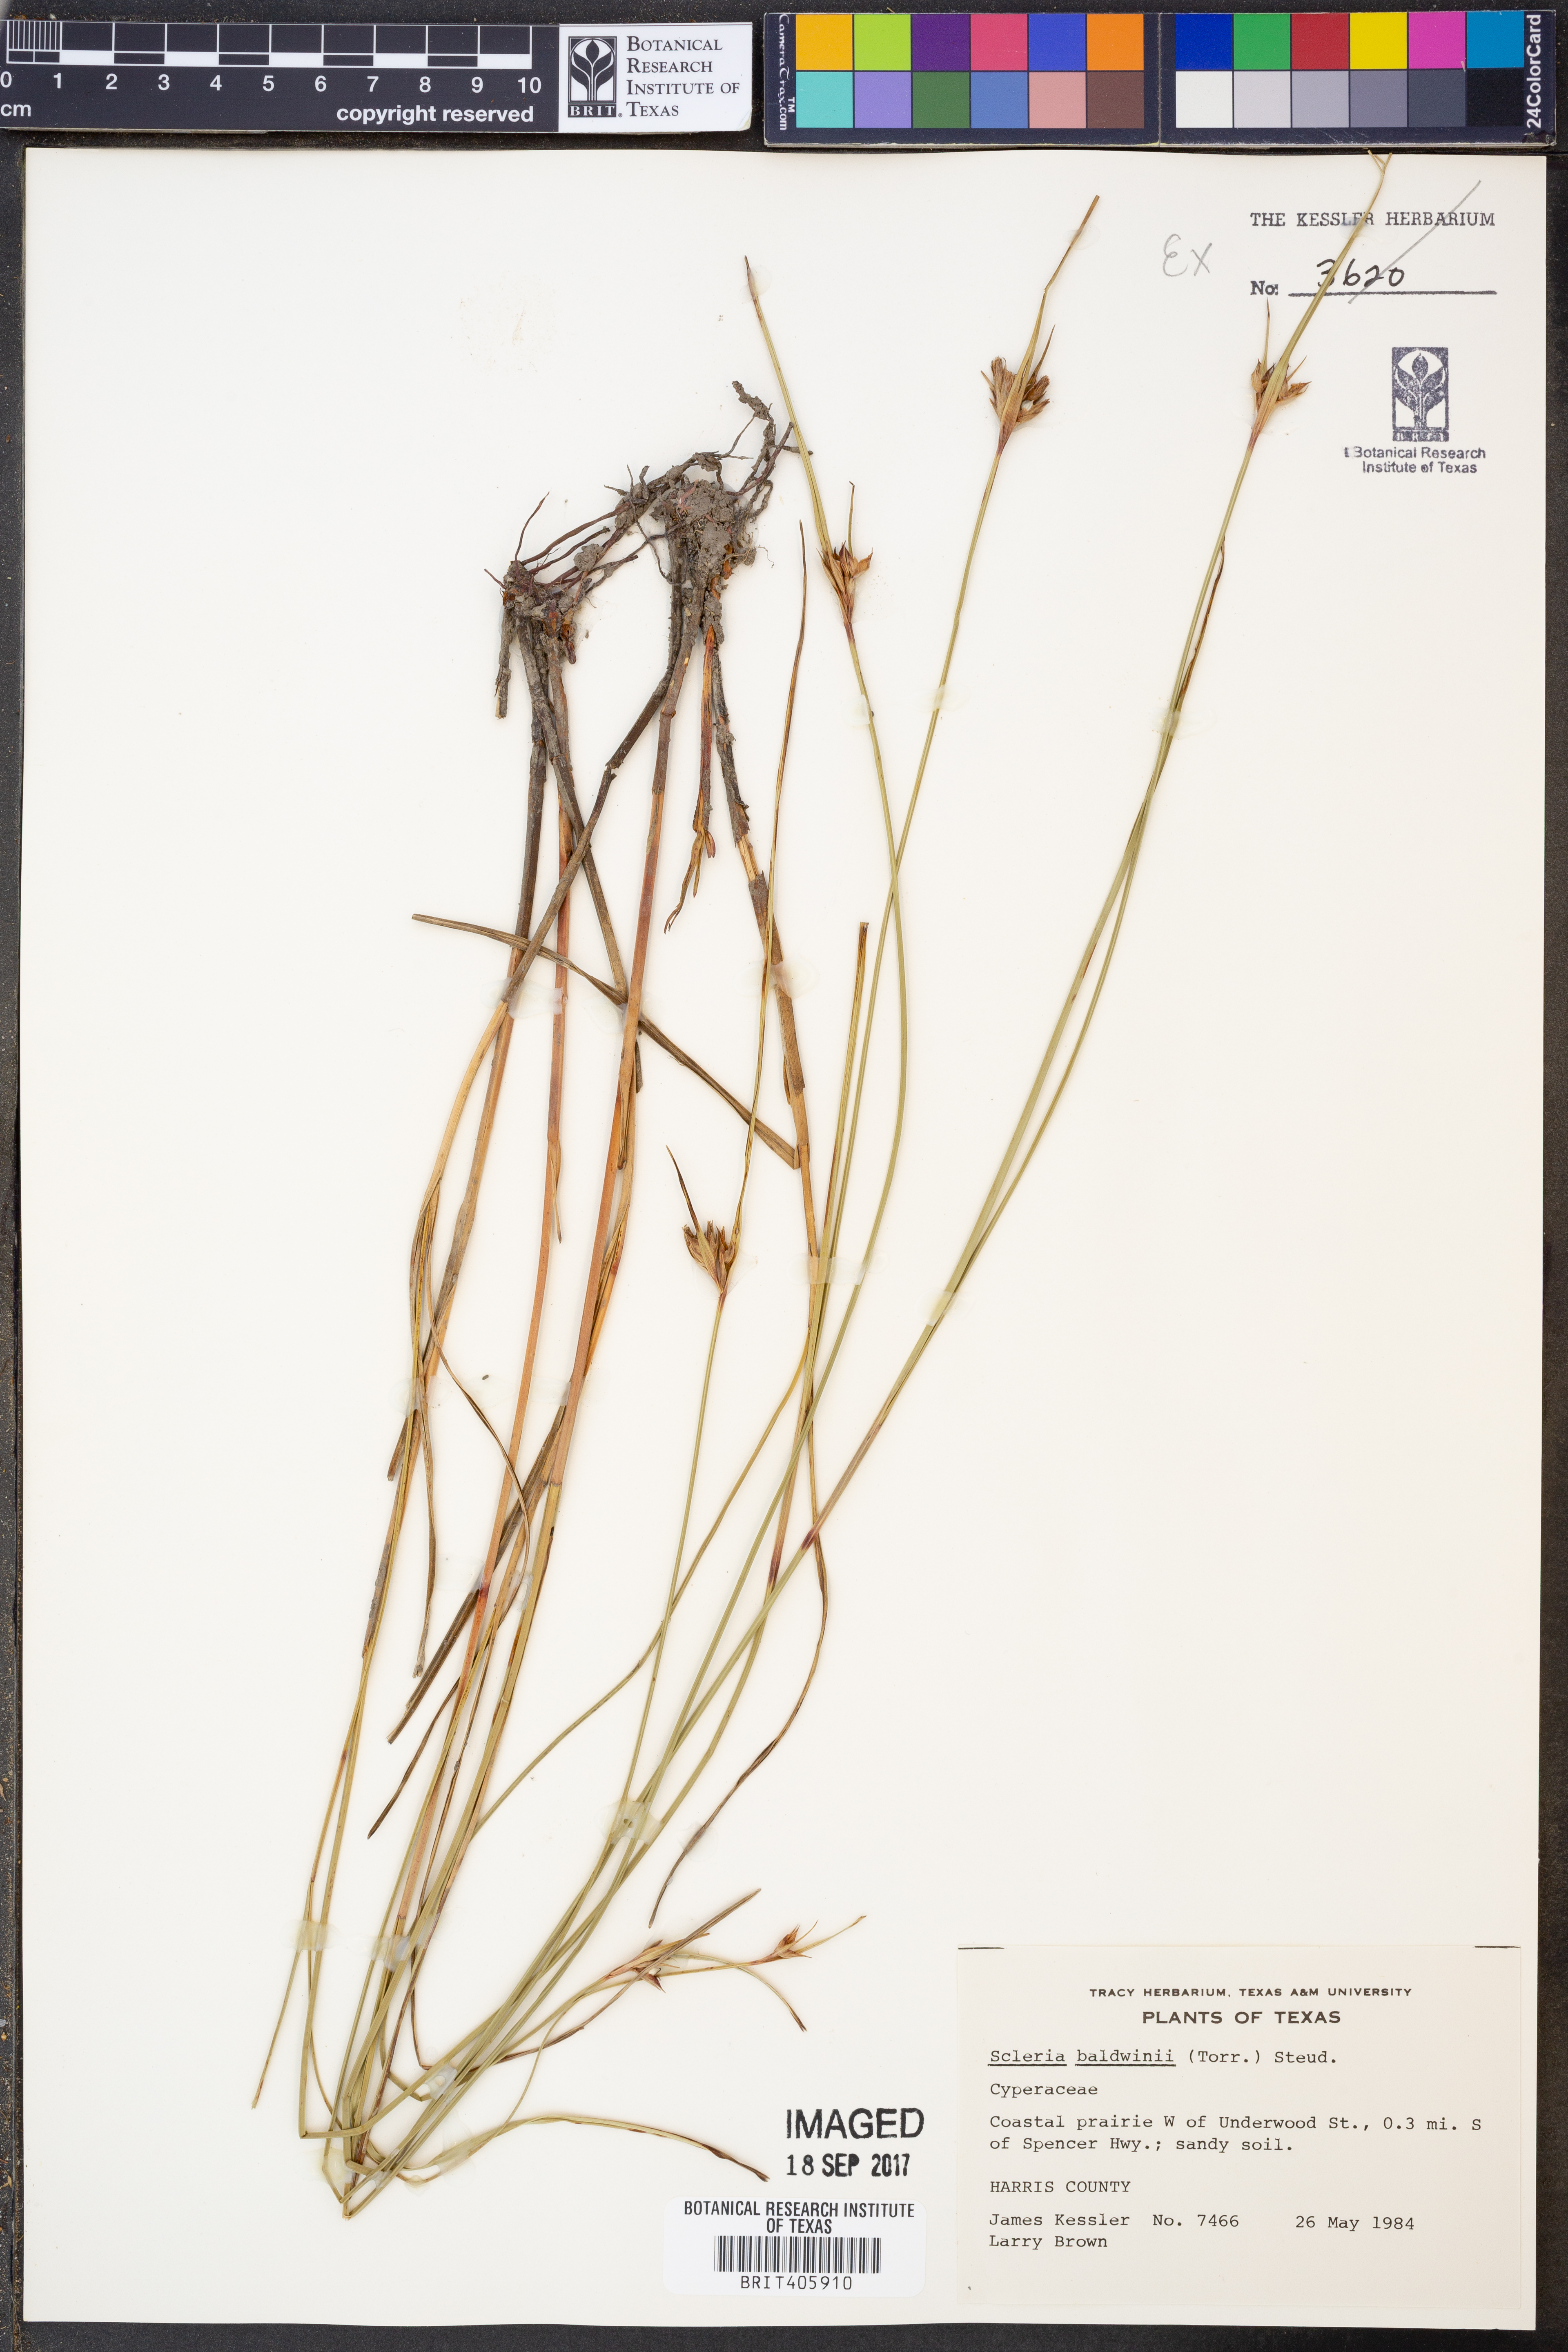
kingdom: Plantae
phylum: Tracheophyta
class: Liliopsida
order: Poales
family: Cyperaceae
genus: Scleria
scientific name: Scleria baldwinii
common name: Baldwin's nutrush
